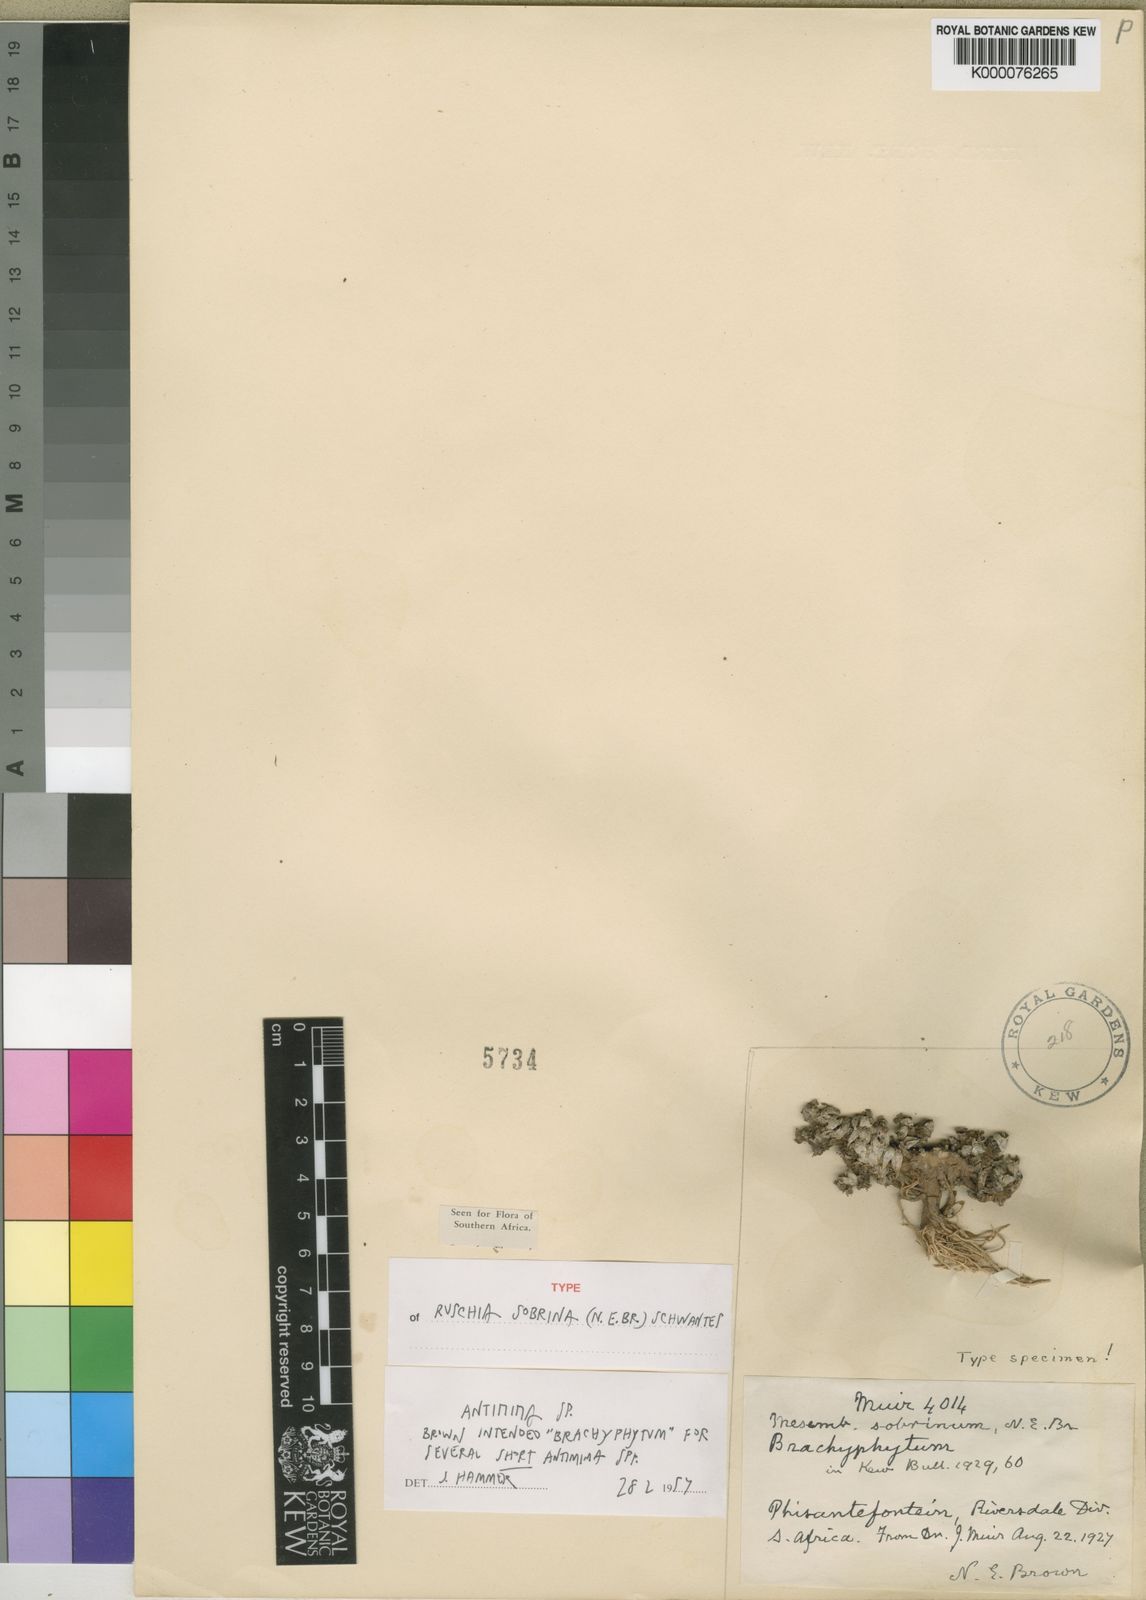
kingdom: Plantae
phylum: Tracheophyta
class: Magnoliopsida
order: Caryophyllales
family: Aizoaceae
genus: Antimima
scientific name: Antimima sobrina
